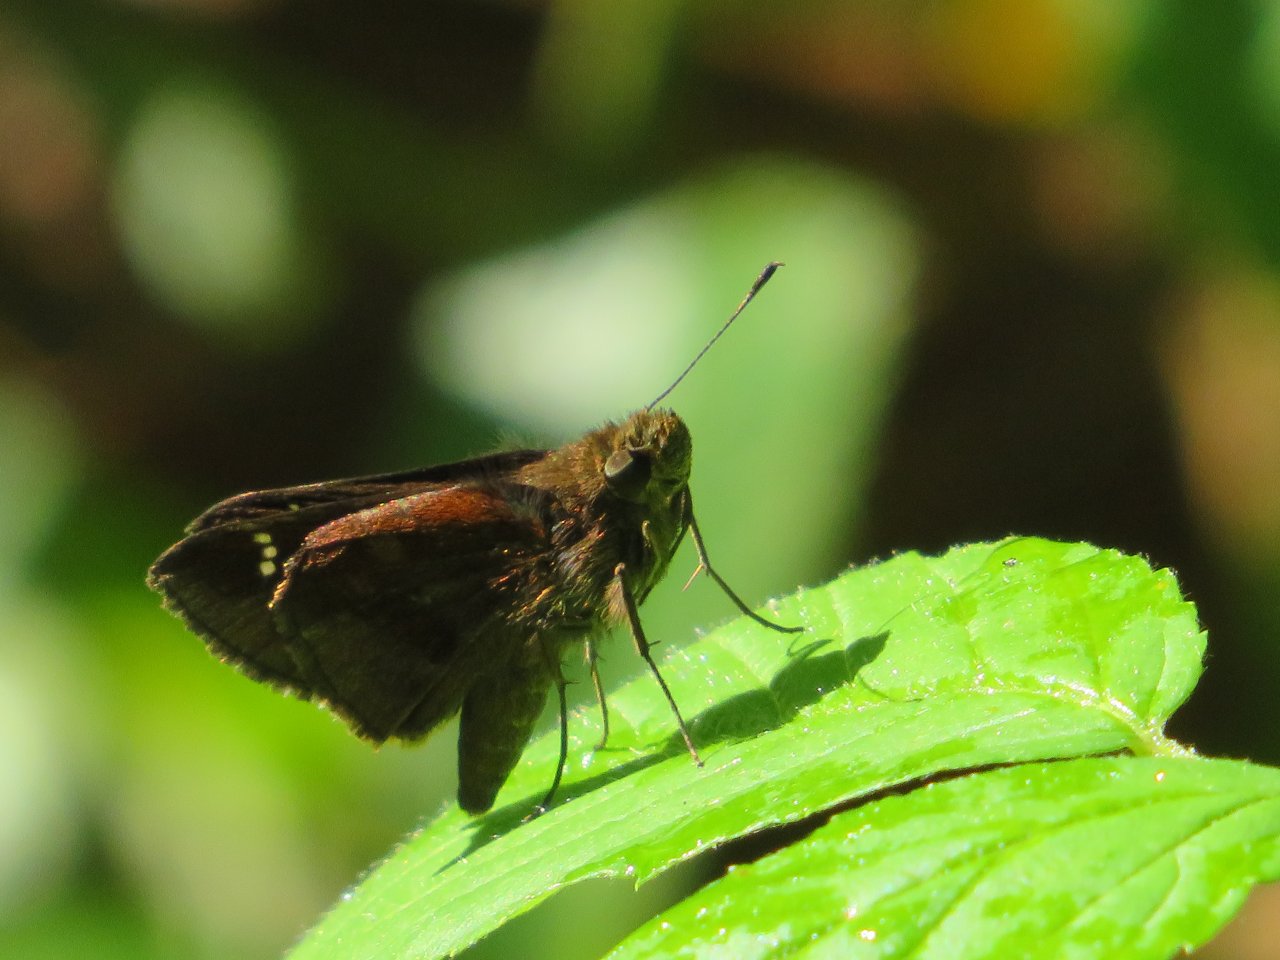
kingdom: Animalia
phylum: Arthropoda
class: Insecta
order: Lepidoptera
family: Hesperiidae
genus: Lerema
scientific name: Lerema accius
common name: Clouded Skipper
